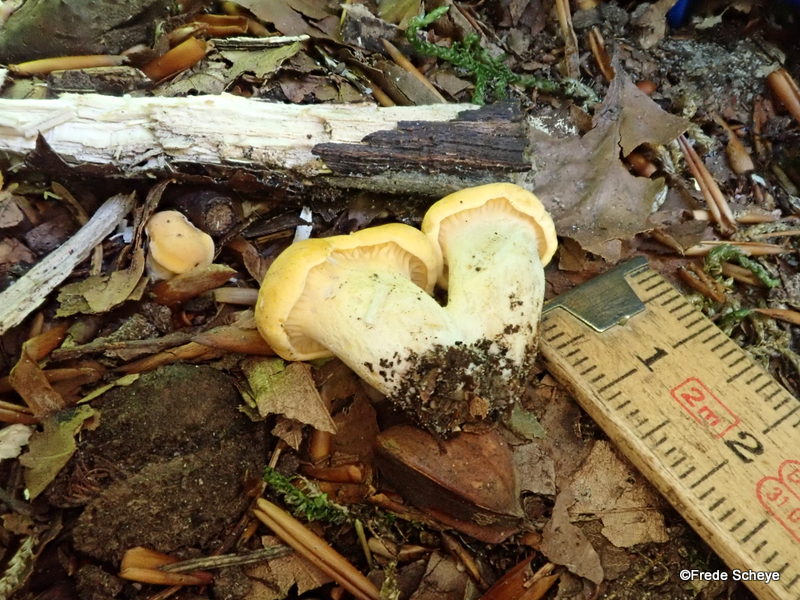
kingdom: Fungi
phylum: Basidiomycota
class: Agaricomycetes
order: Cantharellales
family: Hydnaceae
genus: Cantharellus
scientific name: Cantharellus pallens
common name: bleg kantarel
